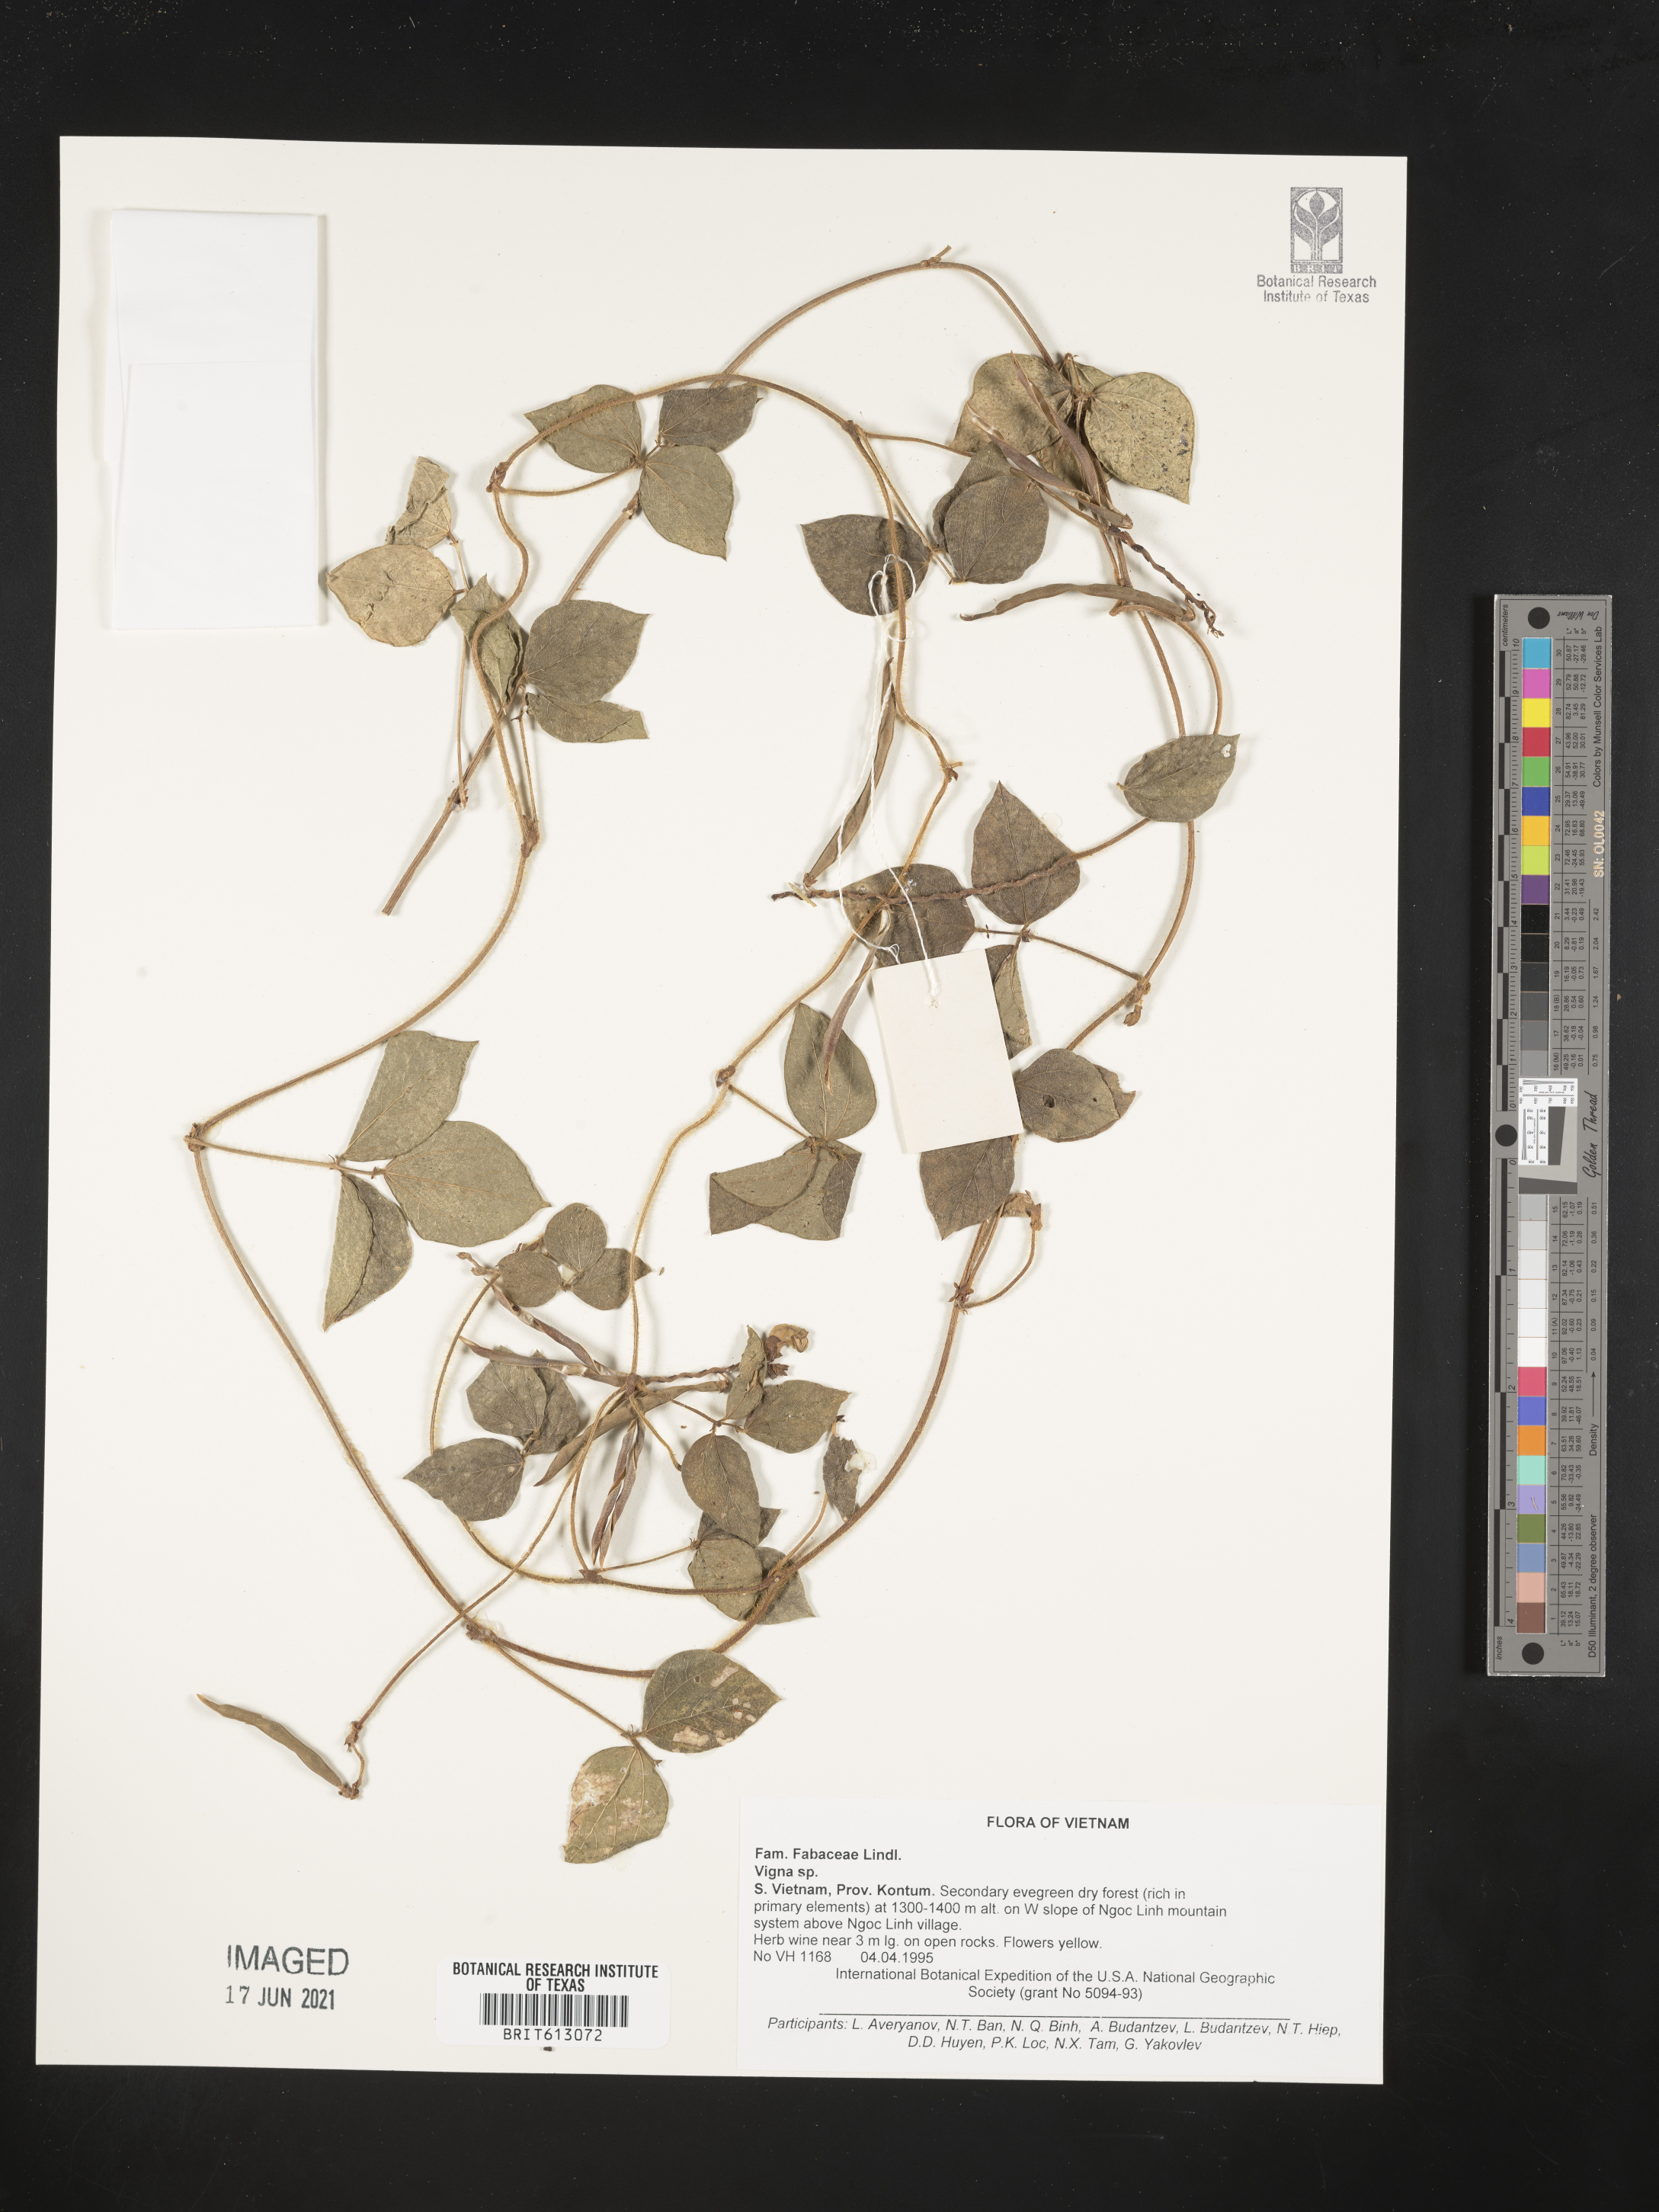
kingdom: Plantae
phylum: Tracheophyta
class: Magnoliopsida
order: Fabales
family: Fabaceae
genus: Vigna
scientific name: Vigna
